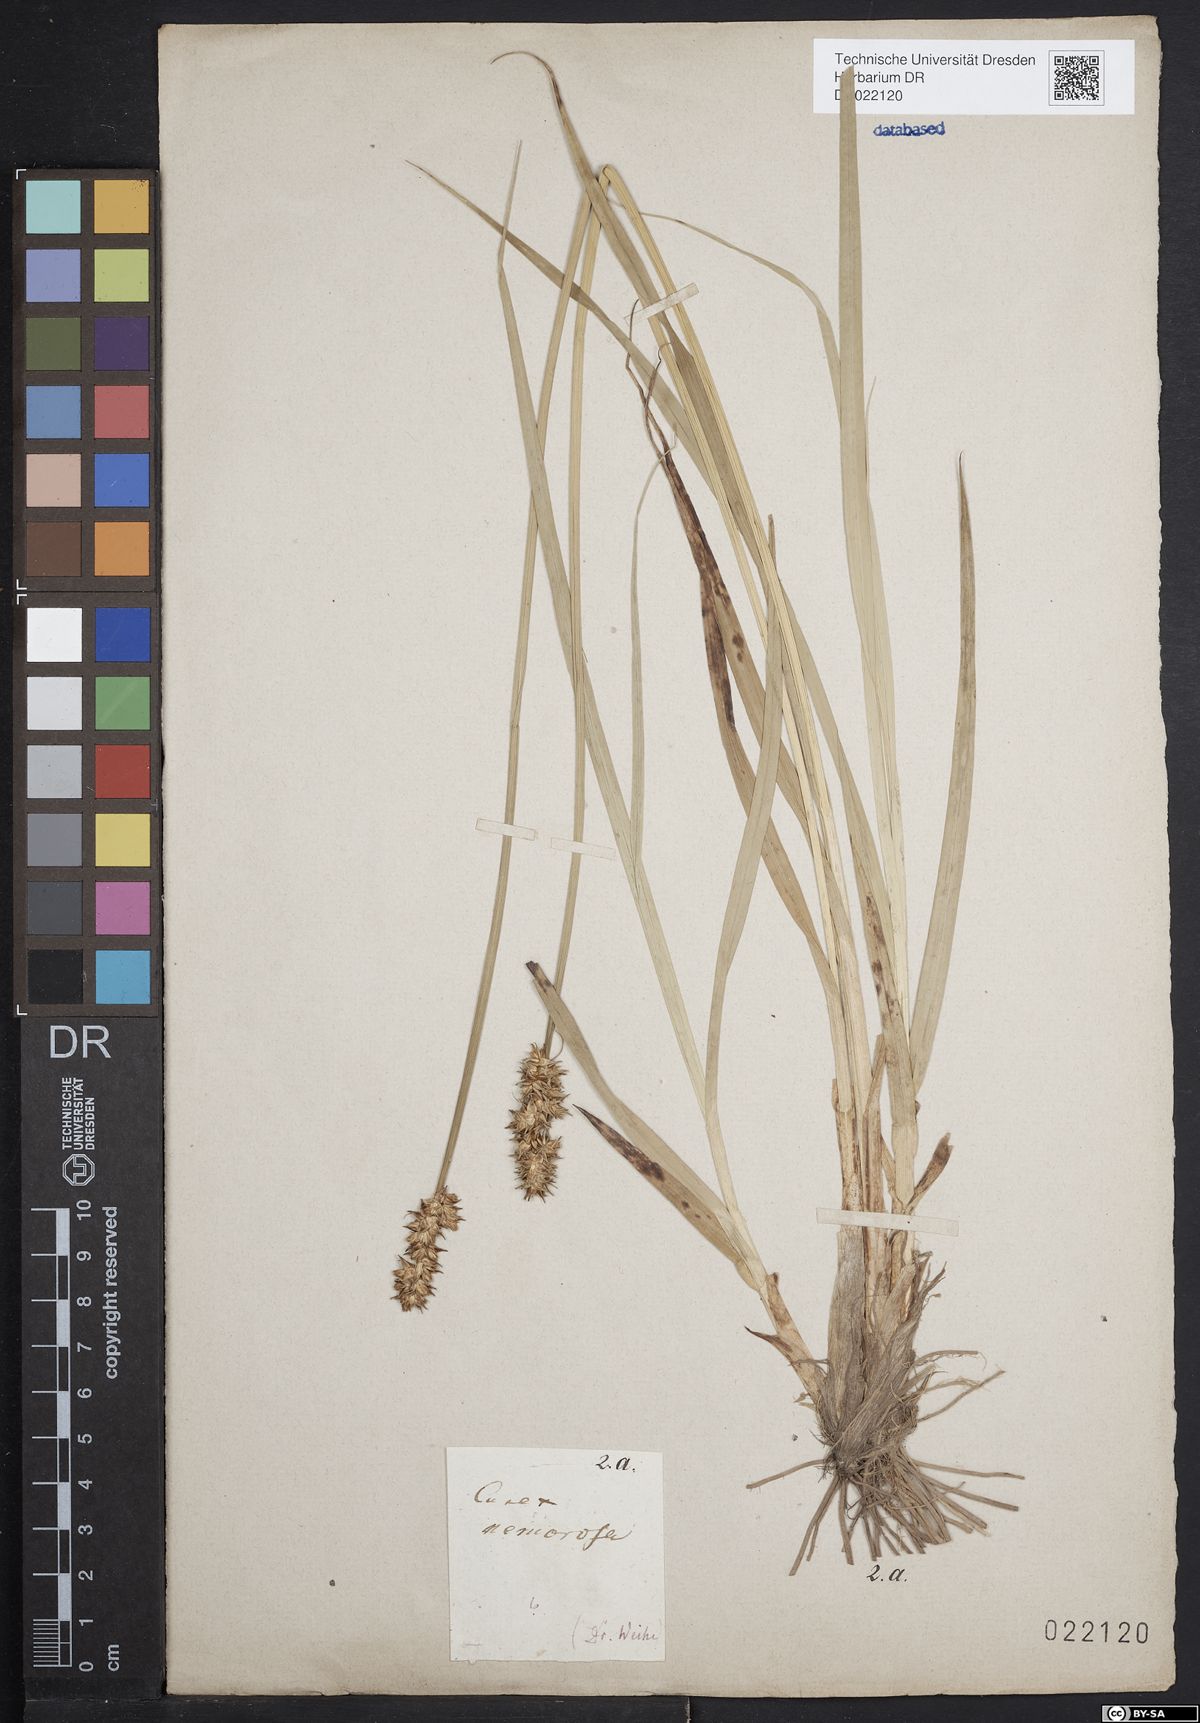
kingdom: Plantae
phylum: Tracheophyta
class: Liliopsida
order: Poales
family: Cyperaceae
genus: Carex
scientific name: Carex otrubae
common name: False fox-sedge
